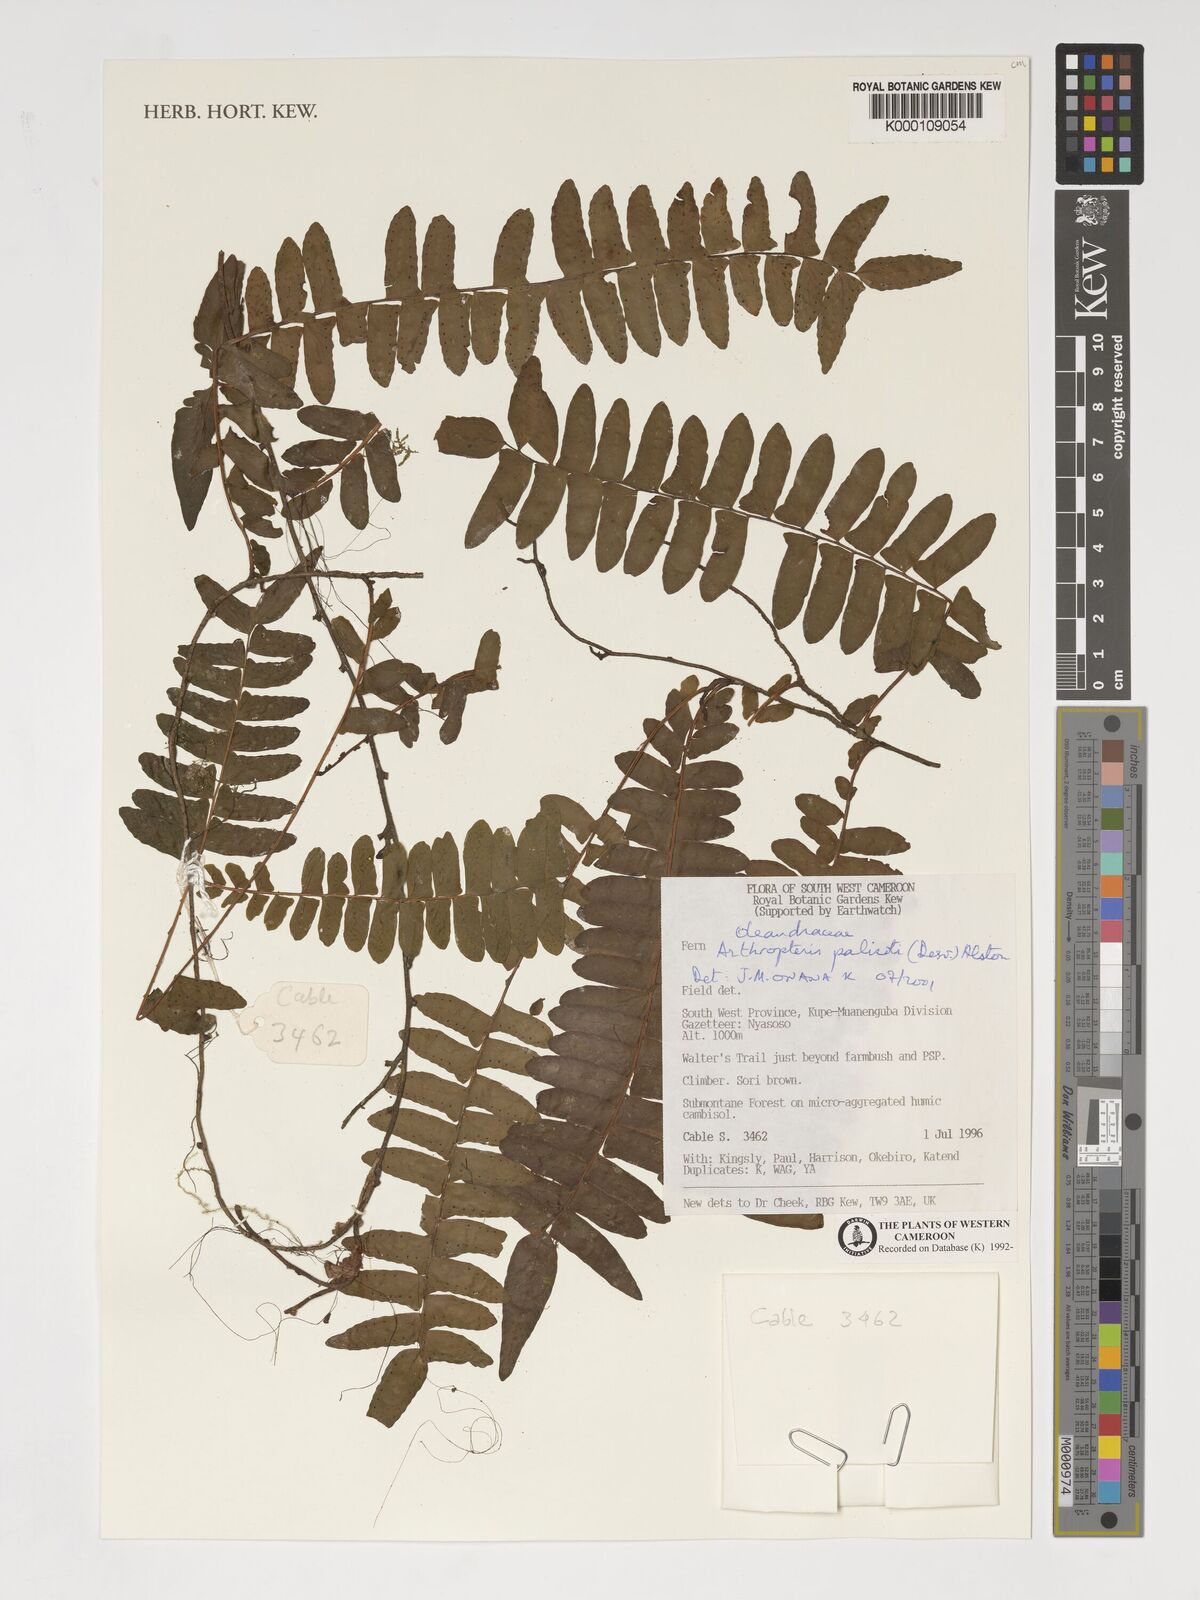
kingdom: Plantae
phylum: Tracheophyta
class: Polypodiopsida
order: Polypodiales
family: Tectariaceae
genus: Arthropteris
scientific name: Arthropteris palisotii
